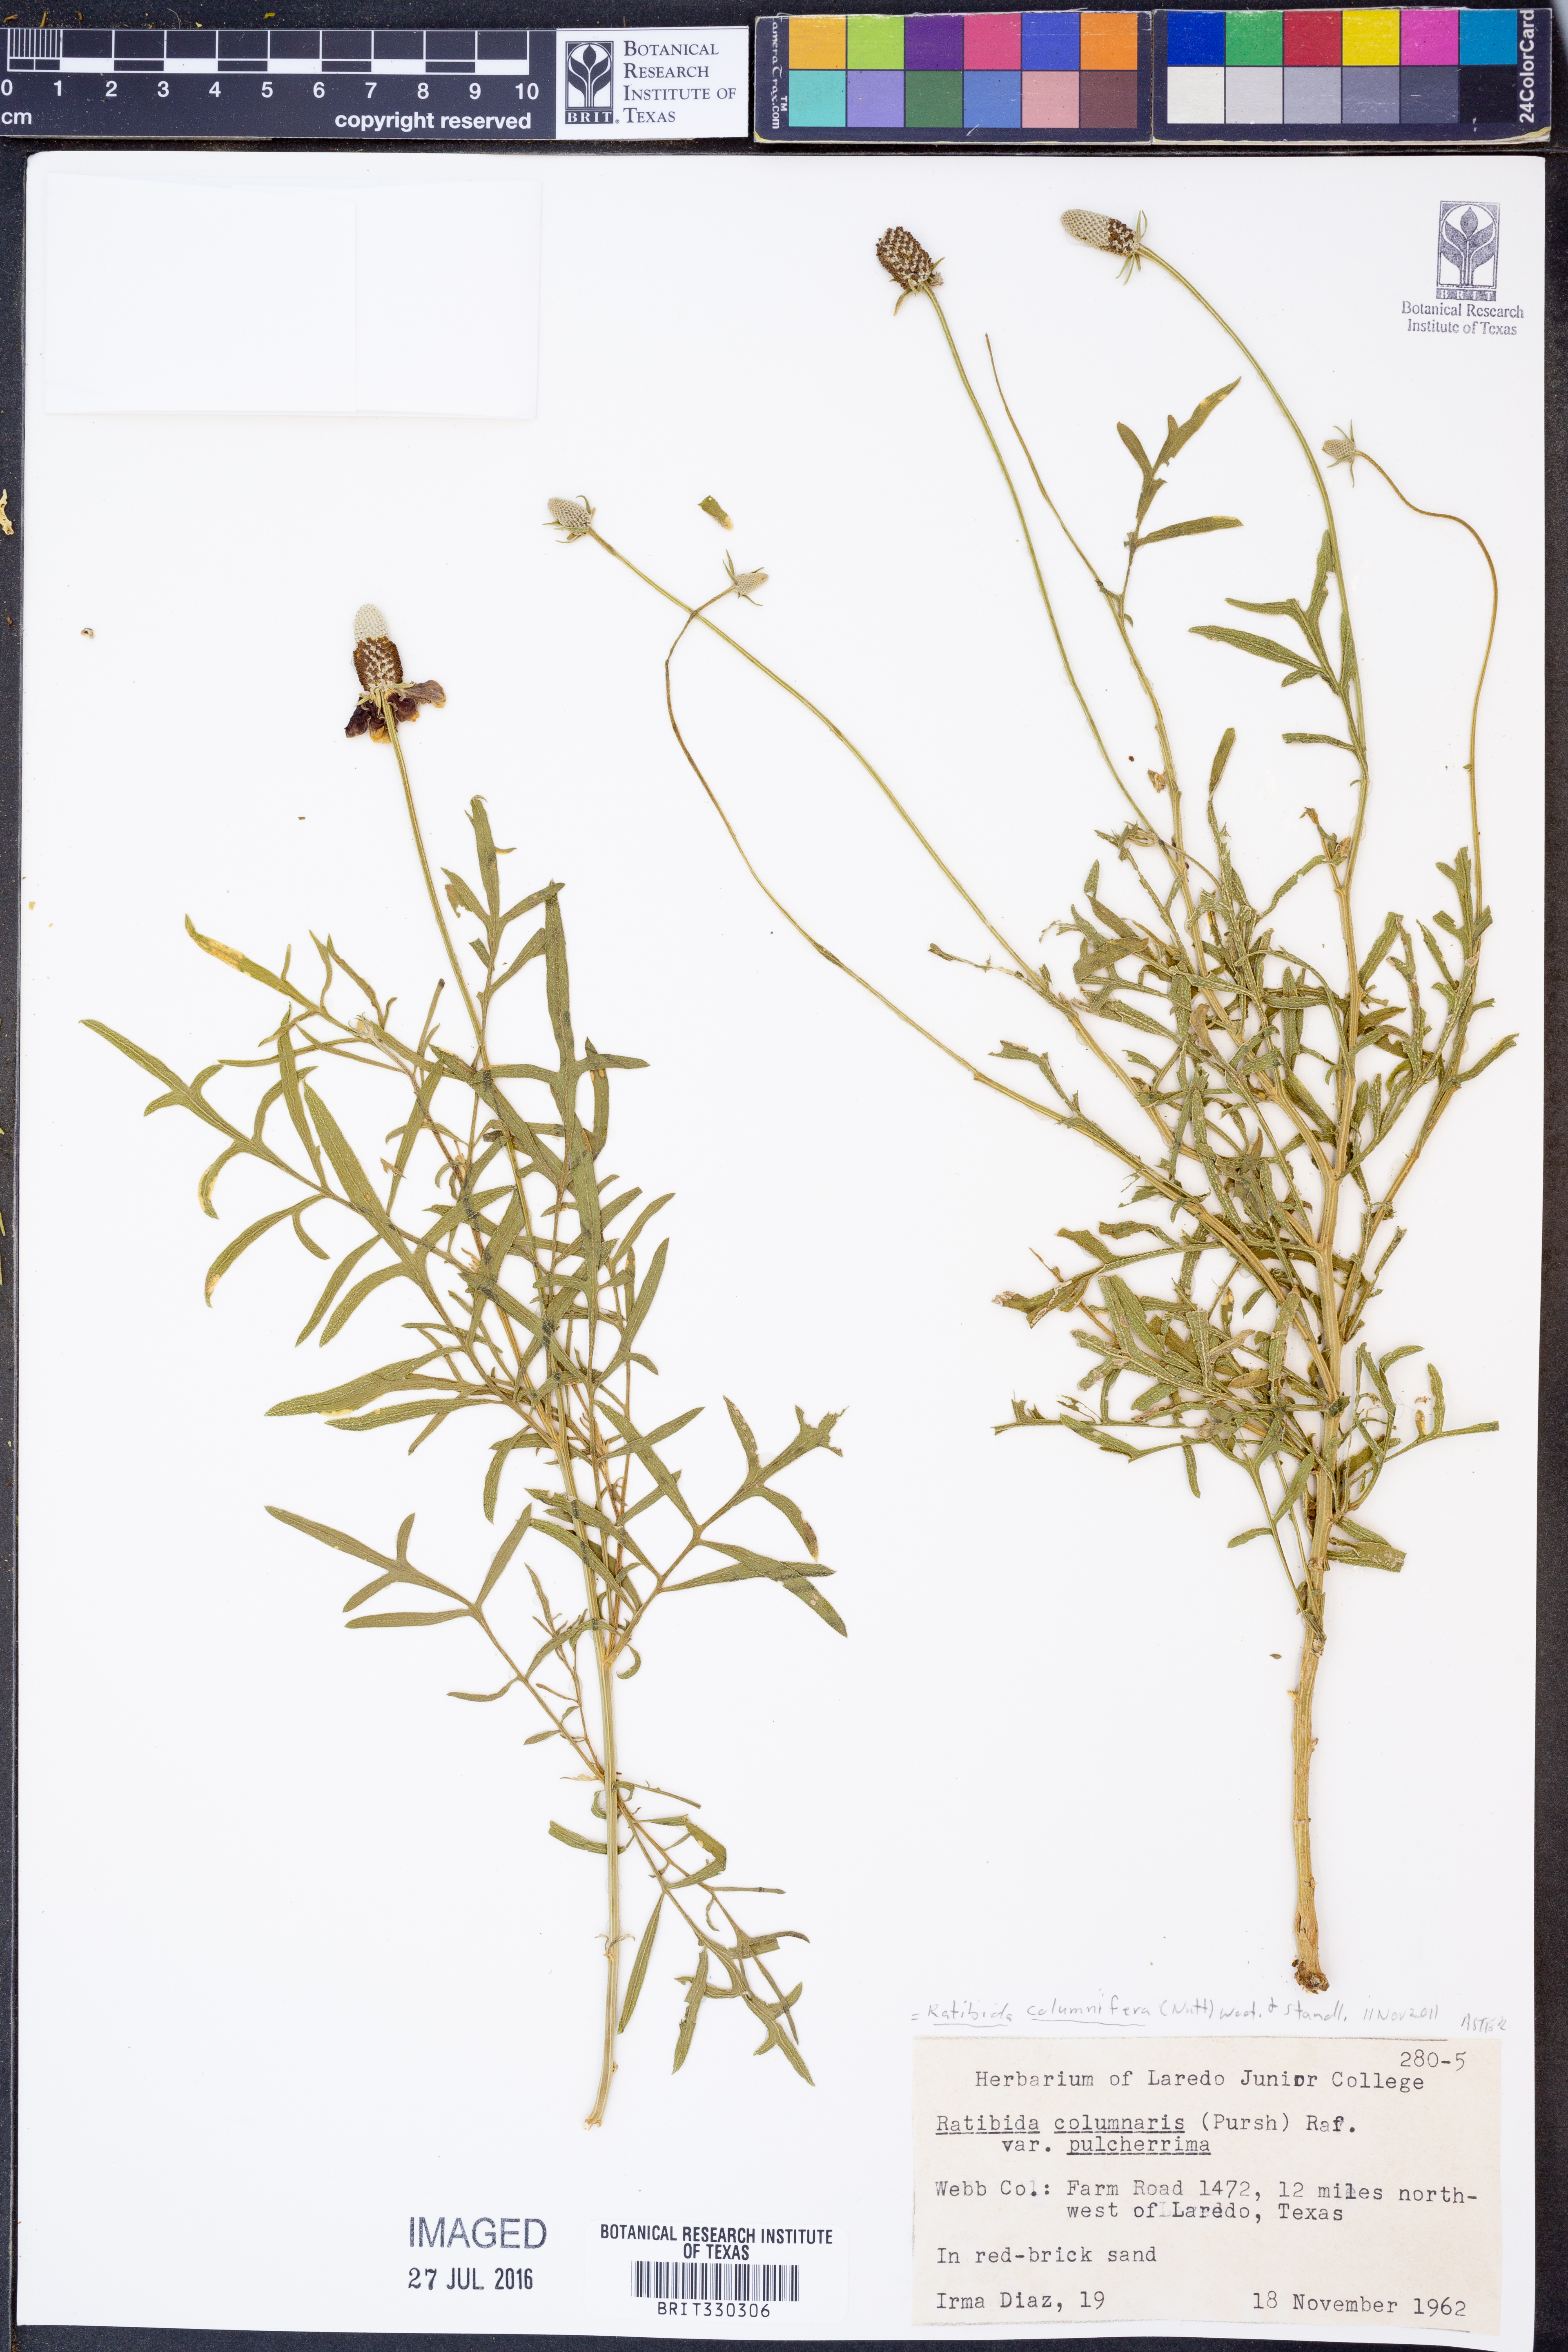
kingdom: Plantae
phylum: Tracheophyta
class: Magnoliopsida
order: Asterales
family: Asteraceae
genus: Ratibida
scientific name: Ratibida columnifera
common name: Prairie coneflower
